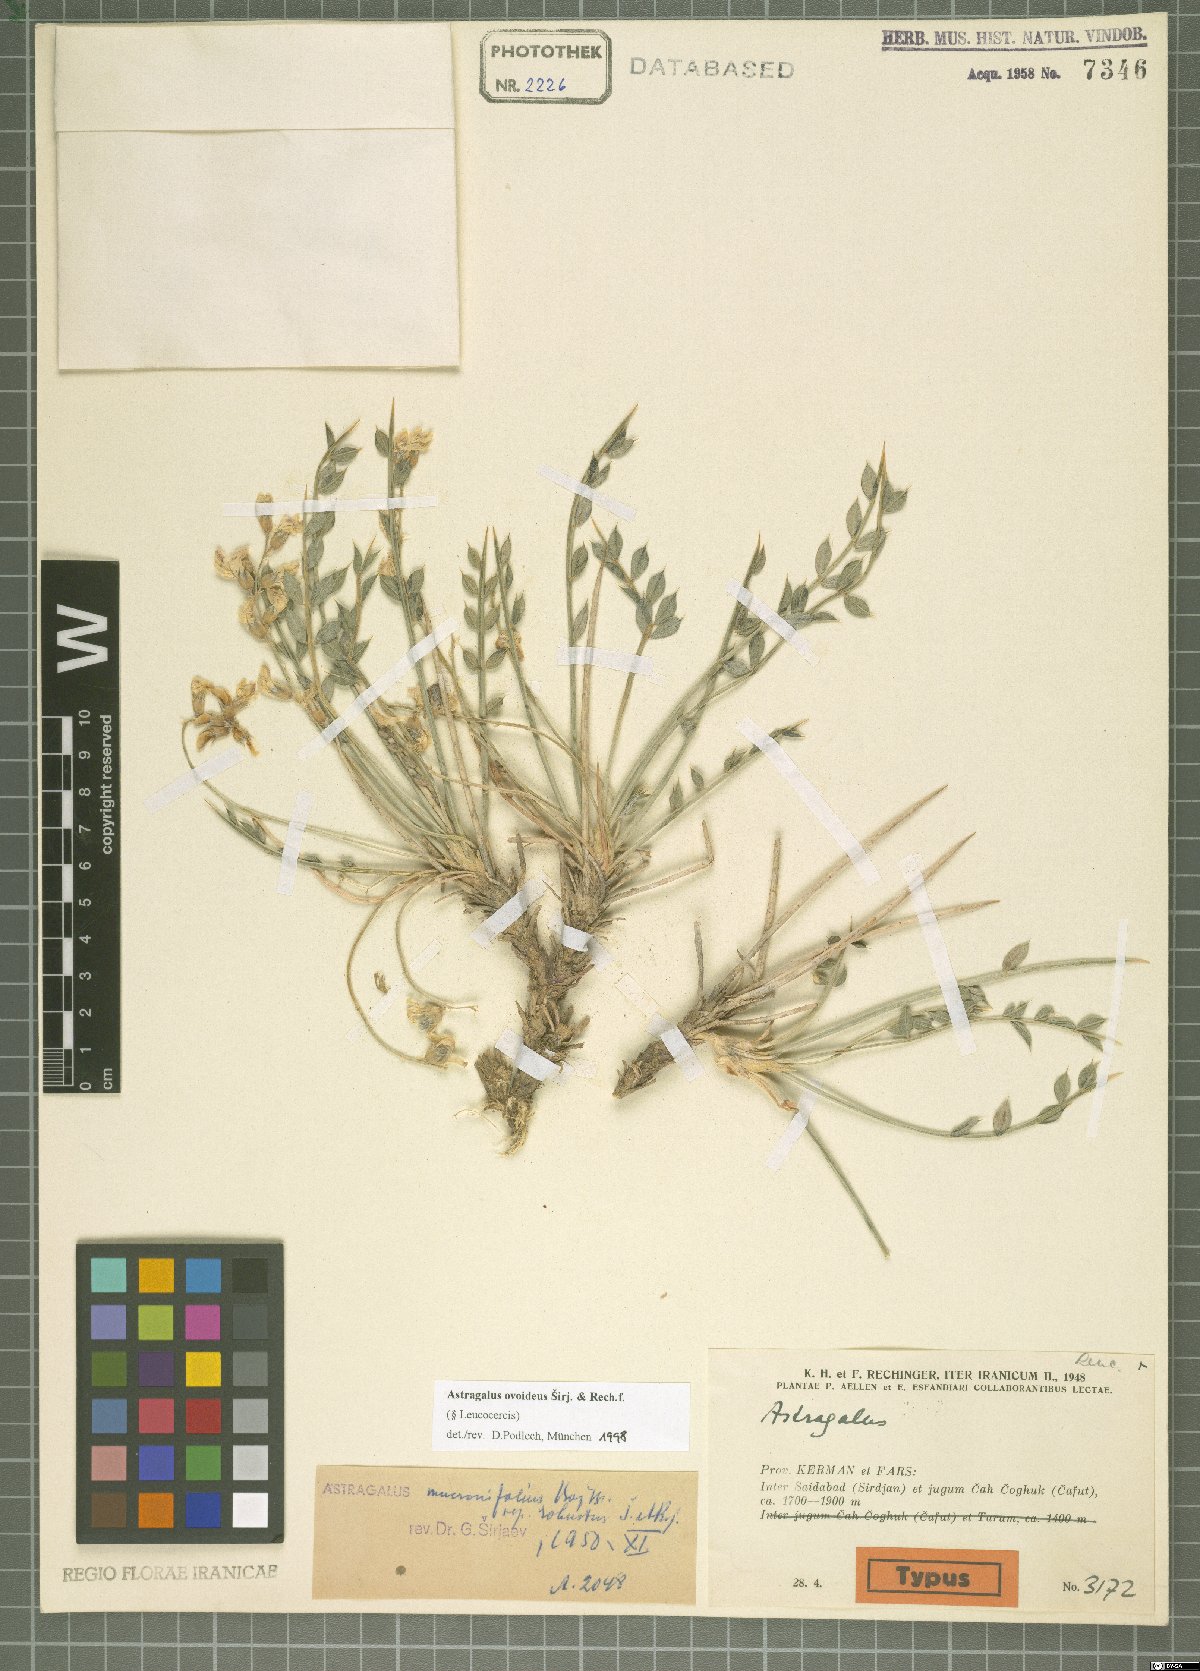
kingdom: Plantae
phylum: Tracheophyta
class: Magnoliopsida
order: Fabales
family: Fabaceae
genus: Astragalus
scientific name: Astragalus ovoideus
